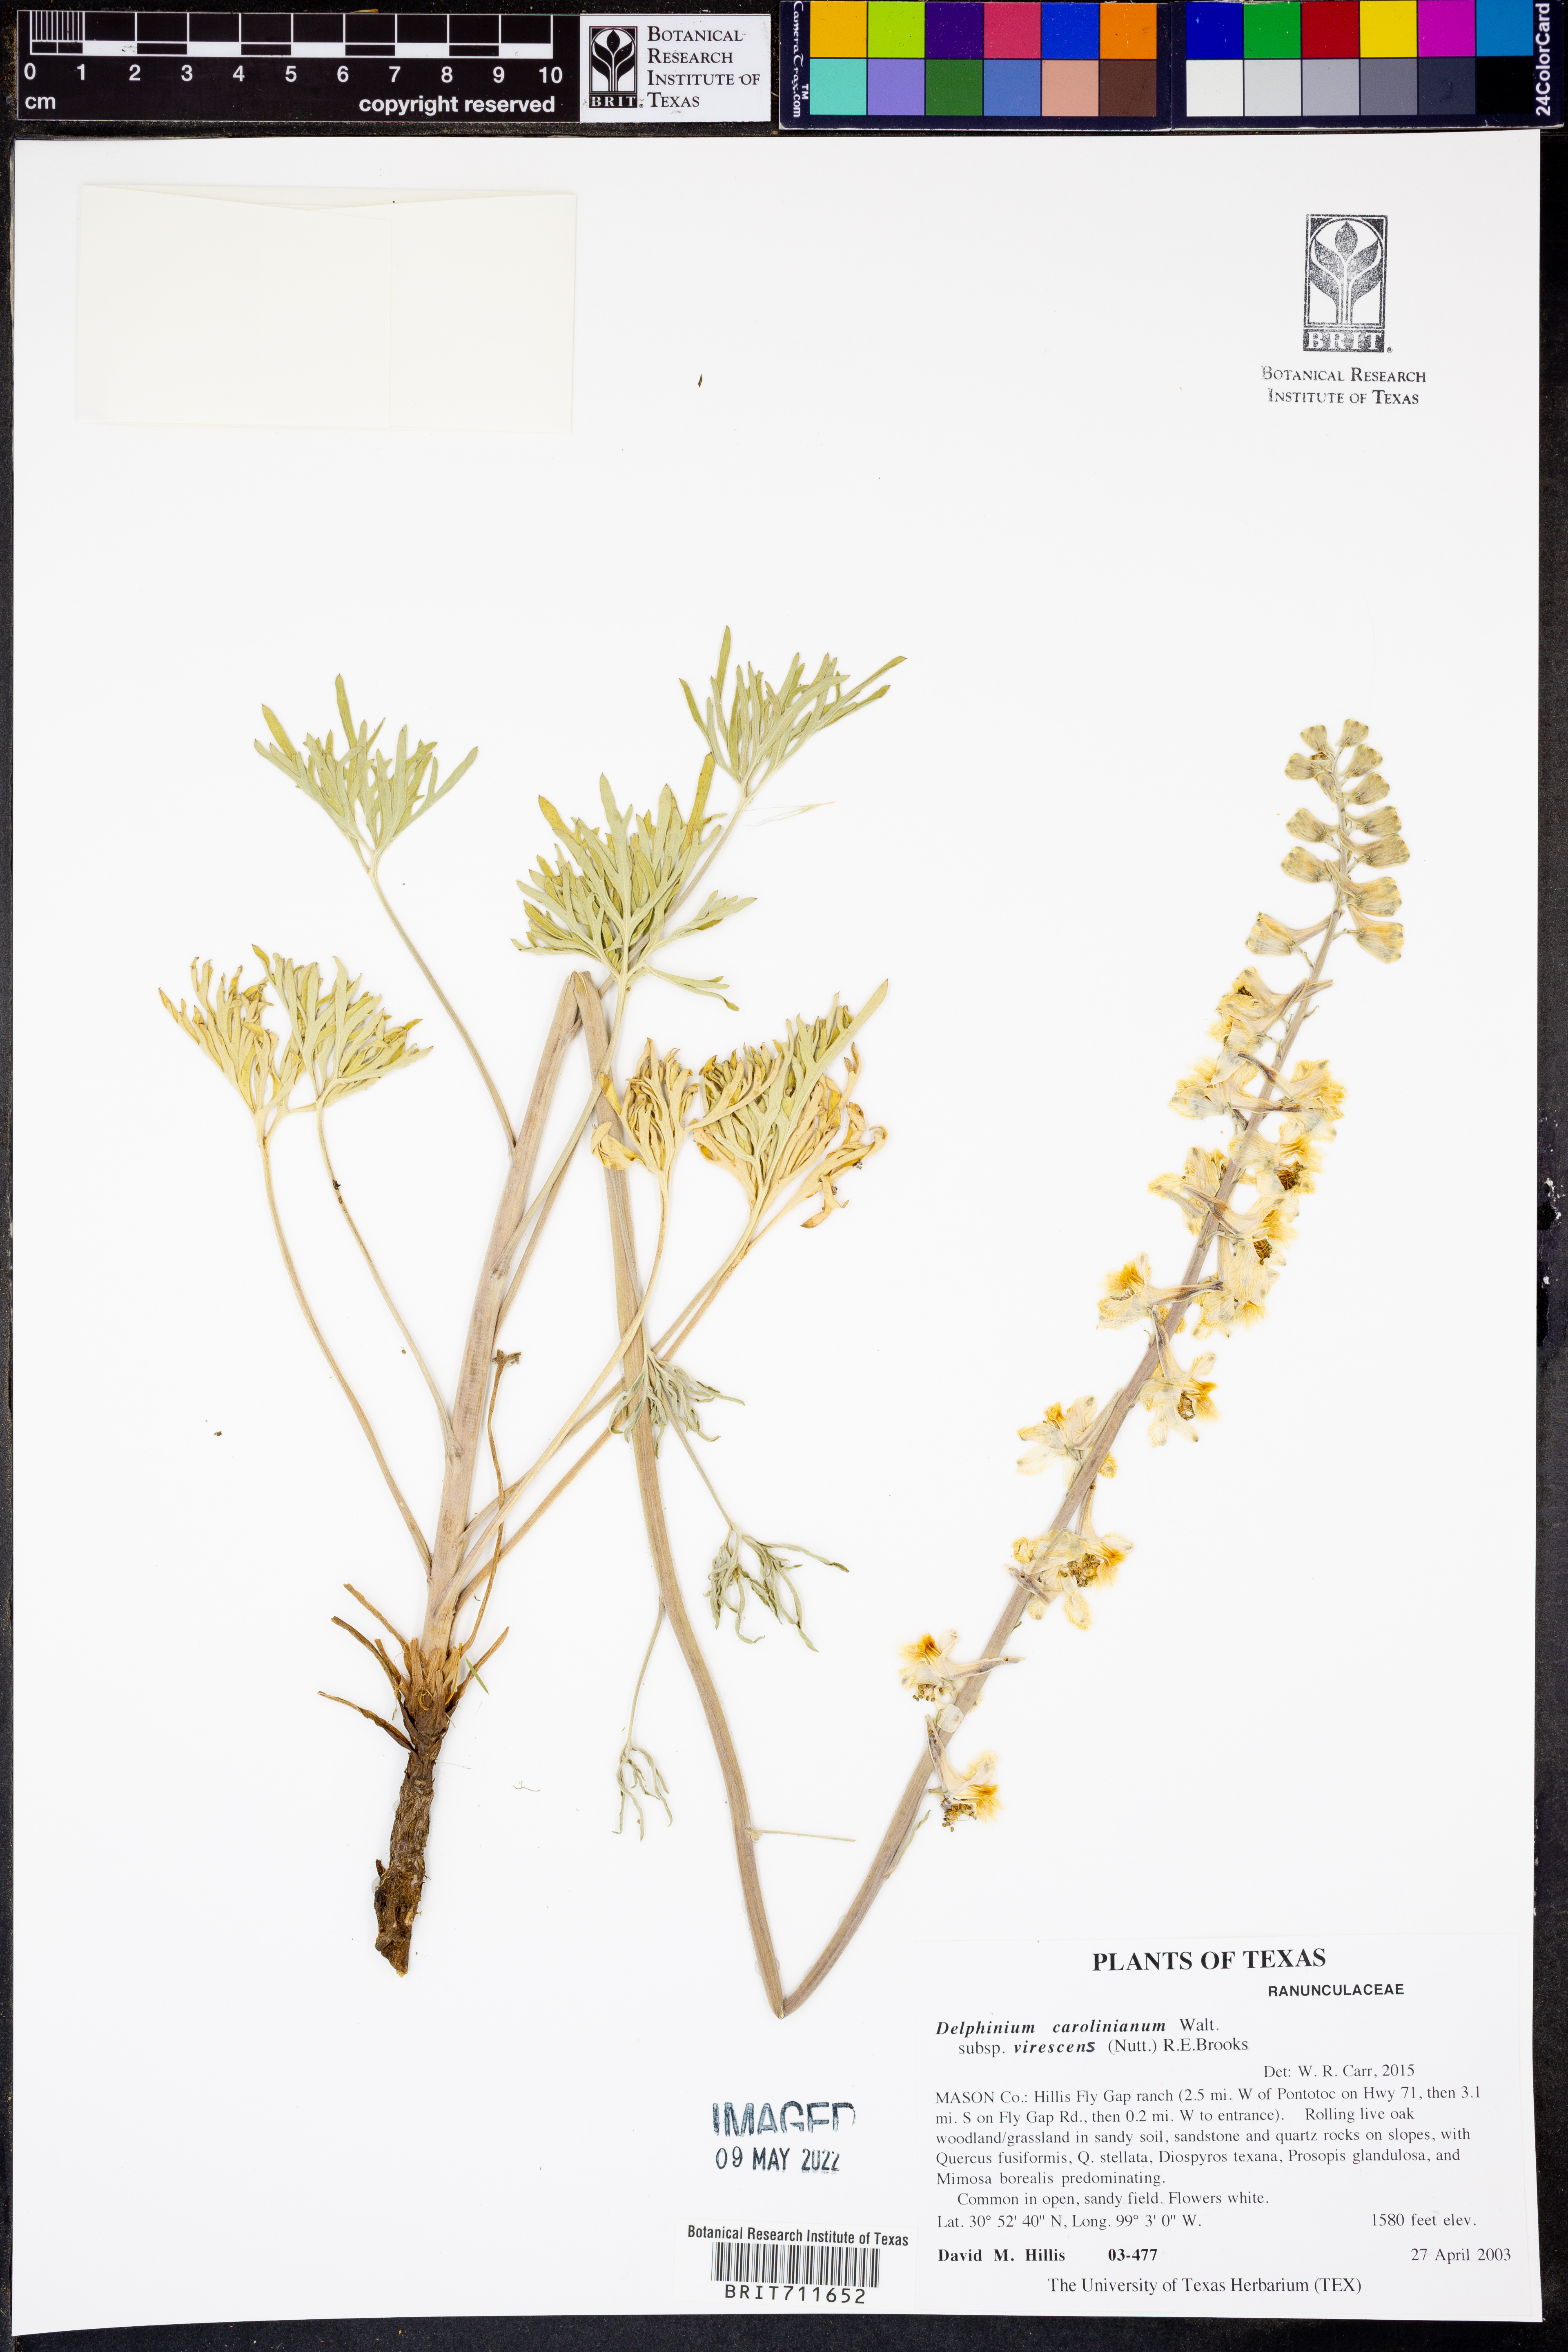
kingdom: Plantae
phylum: Tracheophyta
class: Magnoliopsida
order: Ranunculales
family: Ranunculaceae
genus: Delphinium
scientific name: Delphinium carolinianum
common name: Carolina larkspur
